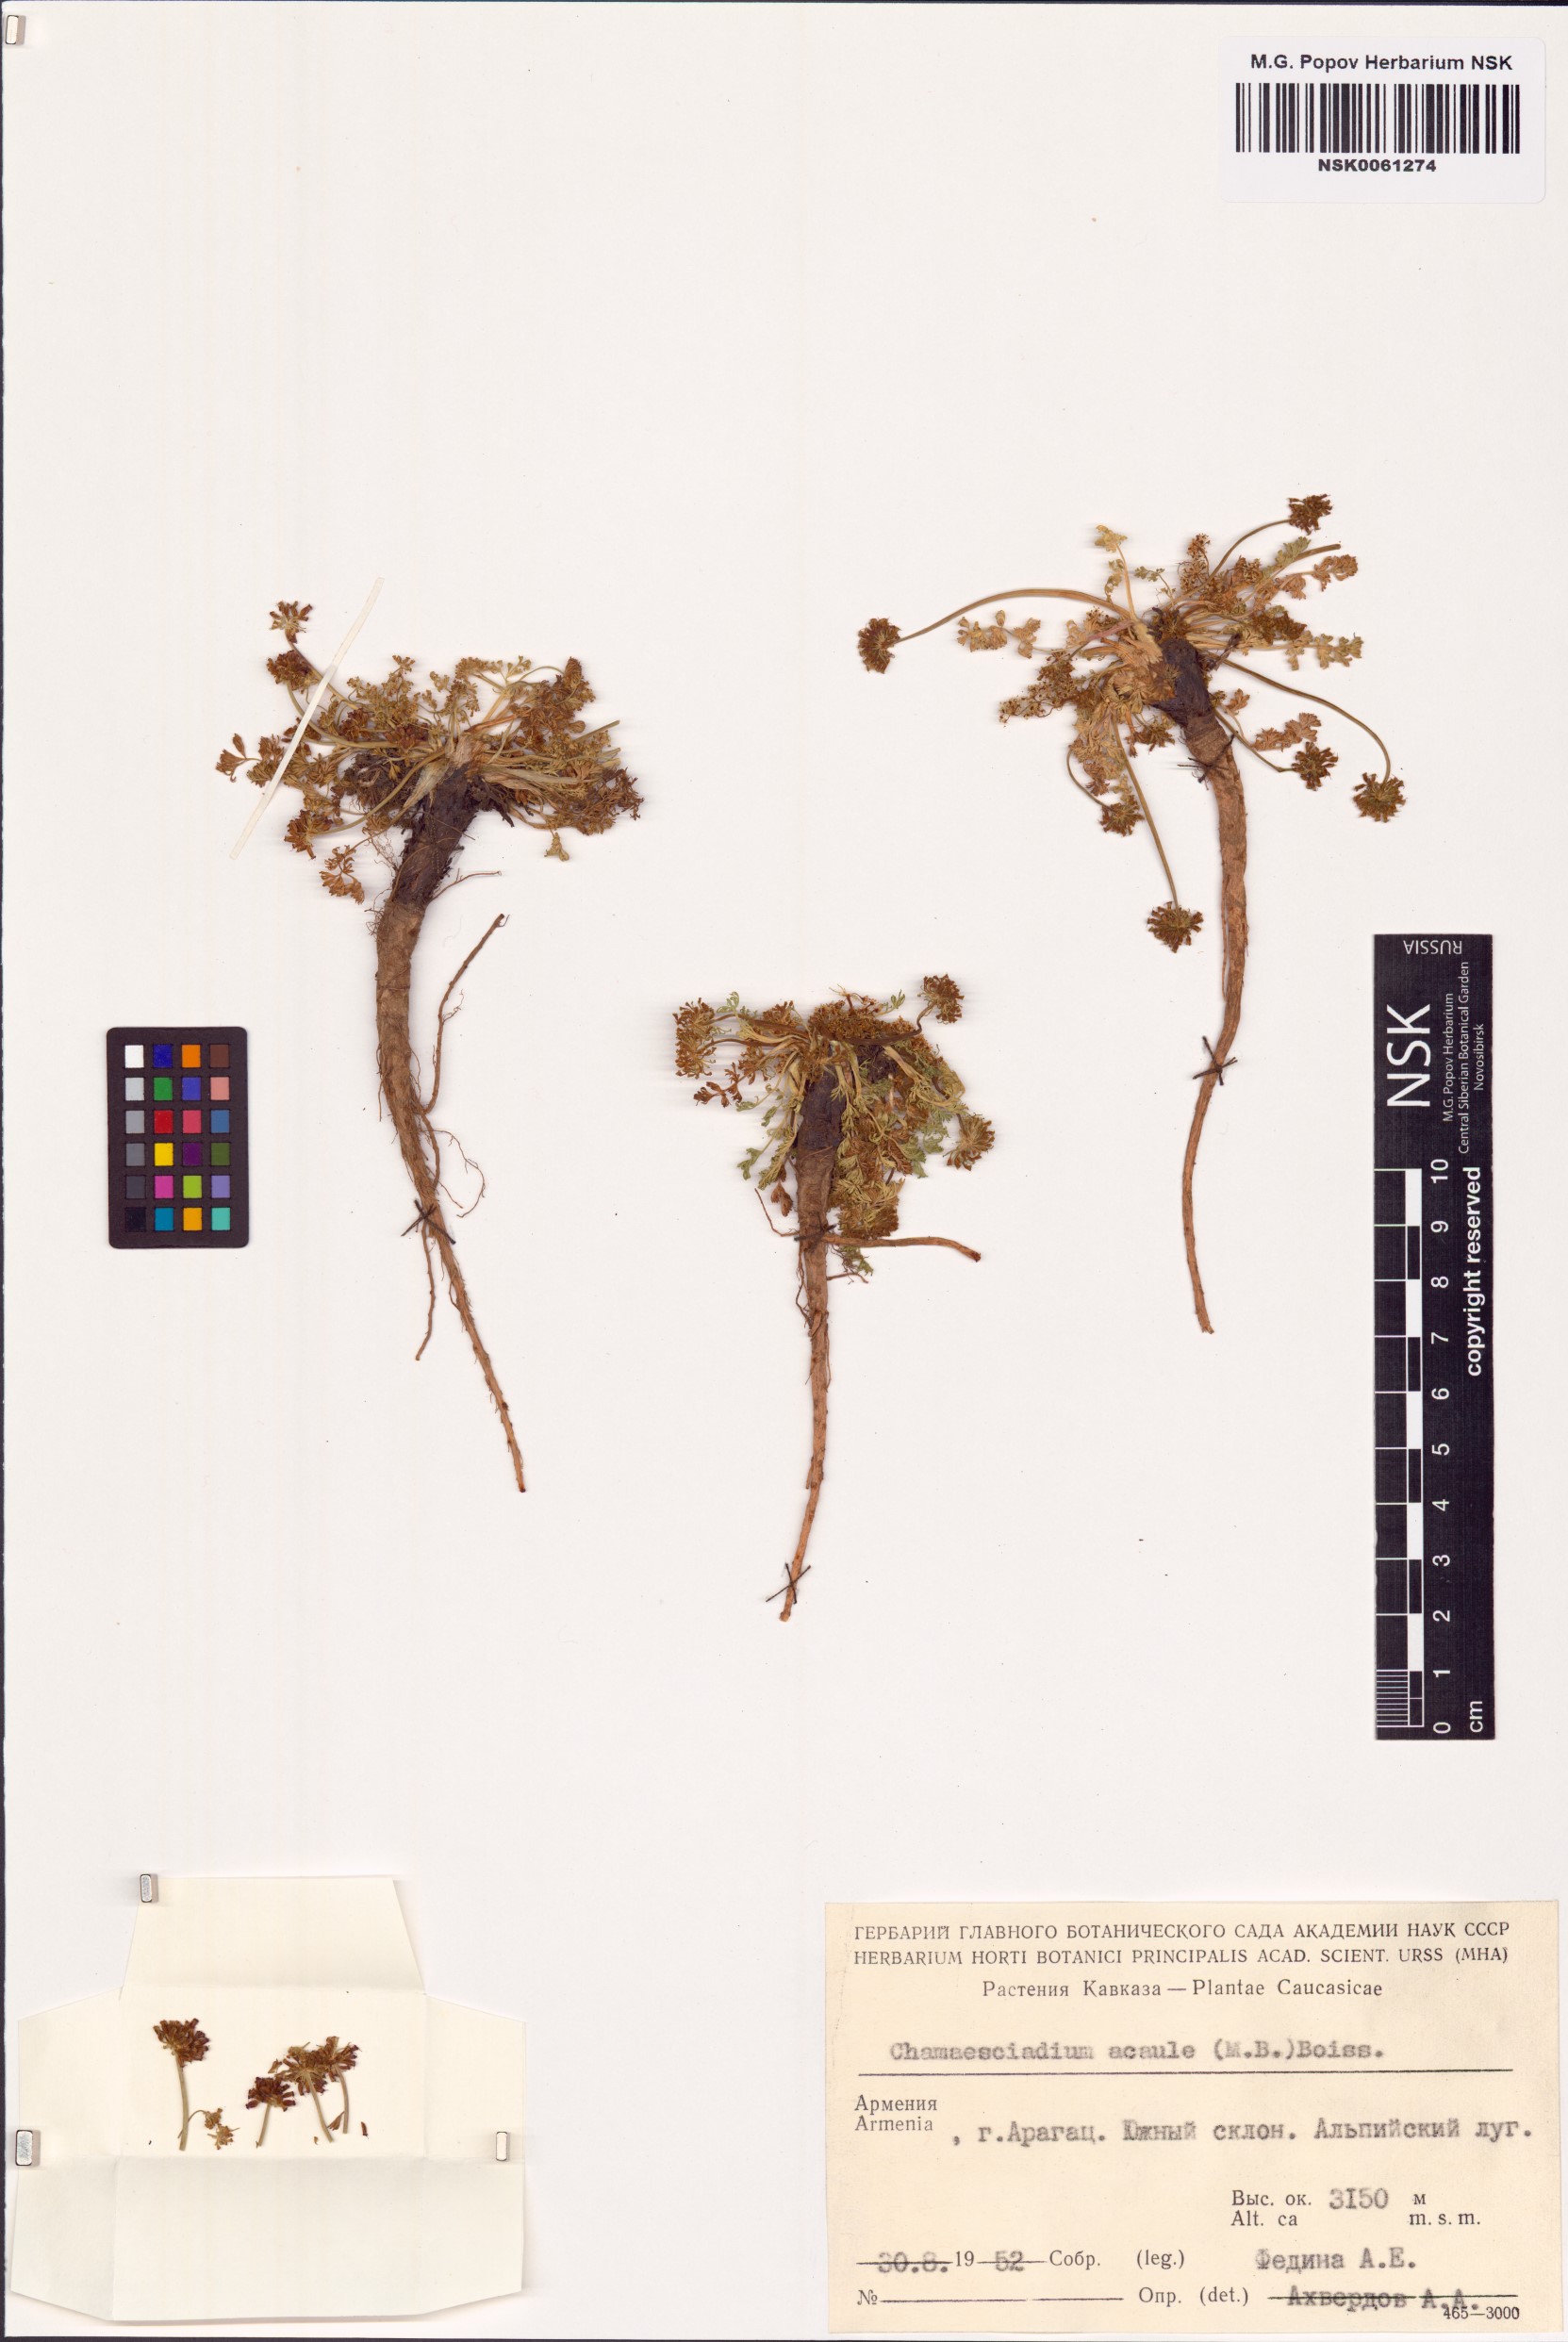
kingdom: Plantae
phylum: Tracheophyta
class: Magnoliopsida
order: Apiales
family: Apiaceae
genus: Chamaesciadium
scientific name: Chamaesciadium acaule
